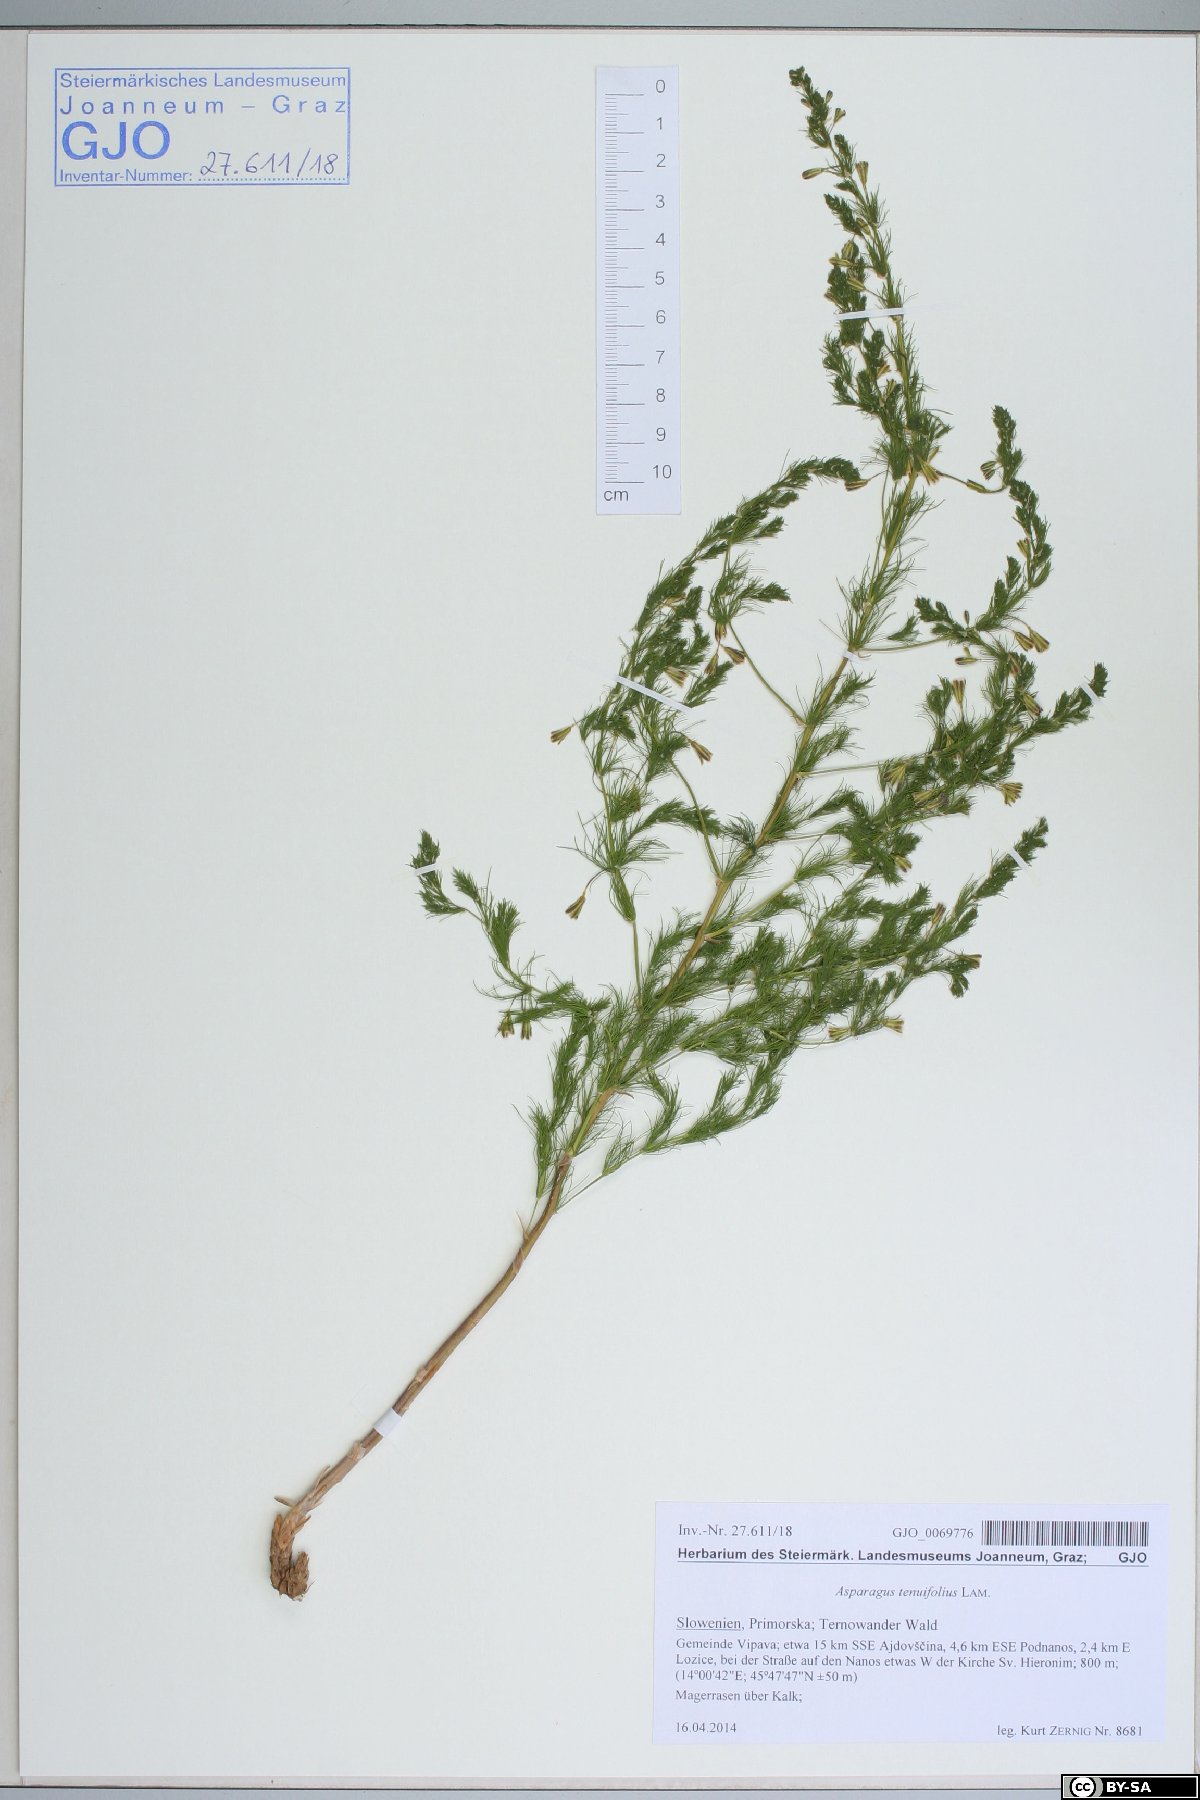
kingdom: Plantae
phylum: Tracheophyta
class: Liliopsida
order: Asparagales
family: Asparagaceae
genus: Asparagus
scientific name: Asparagus tenuifolius
